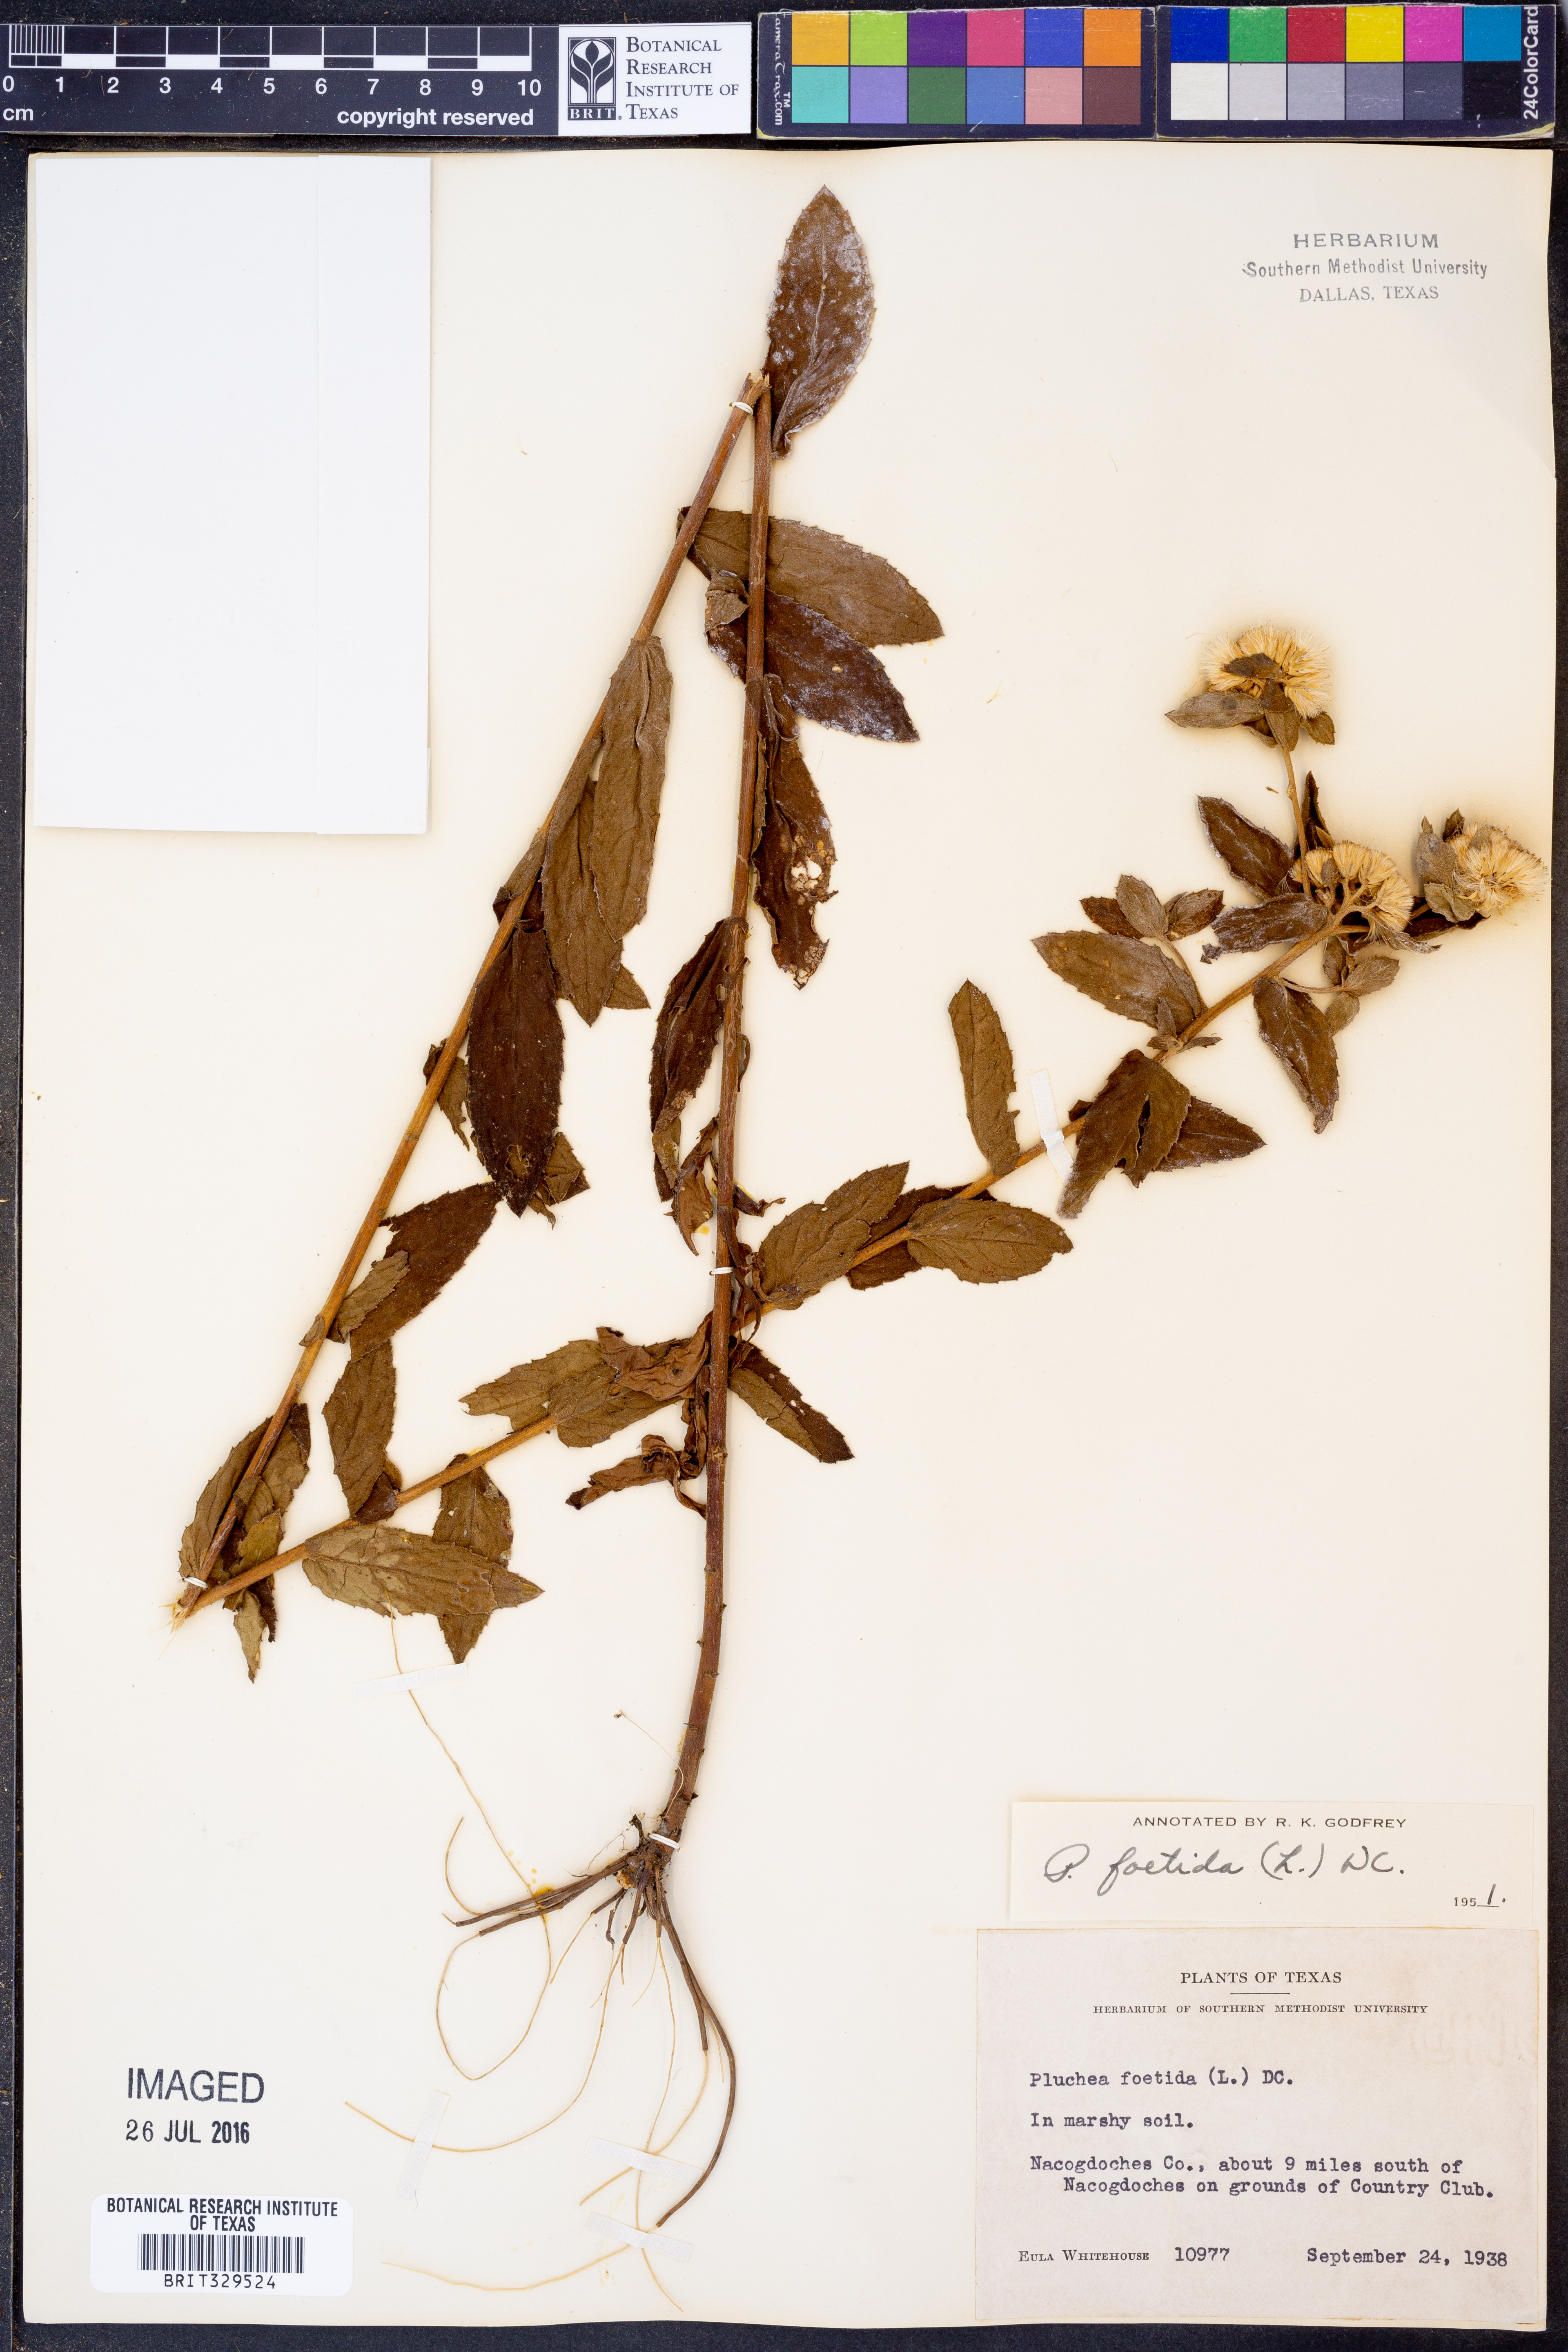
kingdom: Plantae
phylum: Tracheophyta
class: Magnoliopsida
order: Asterales
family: Asteraceae
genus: Pluchea
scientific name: Pluchea foetida
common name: Stinking camphorweed
